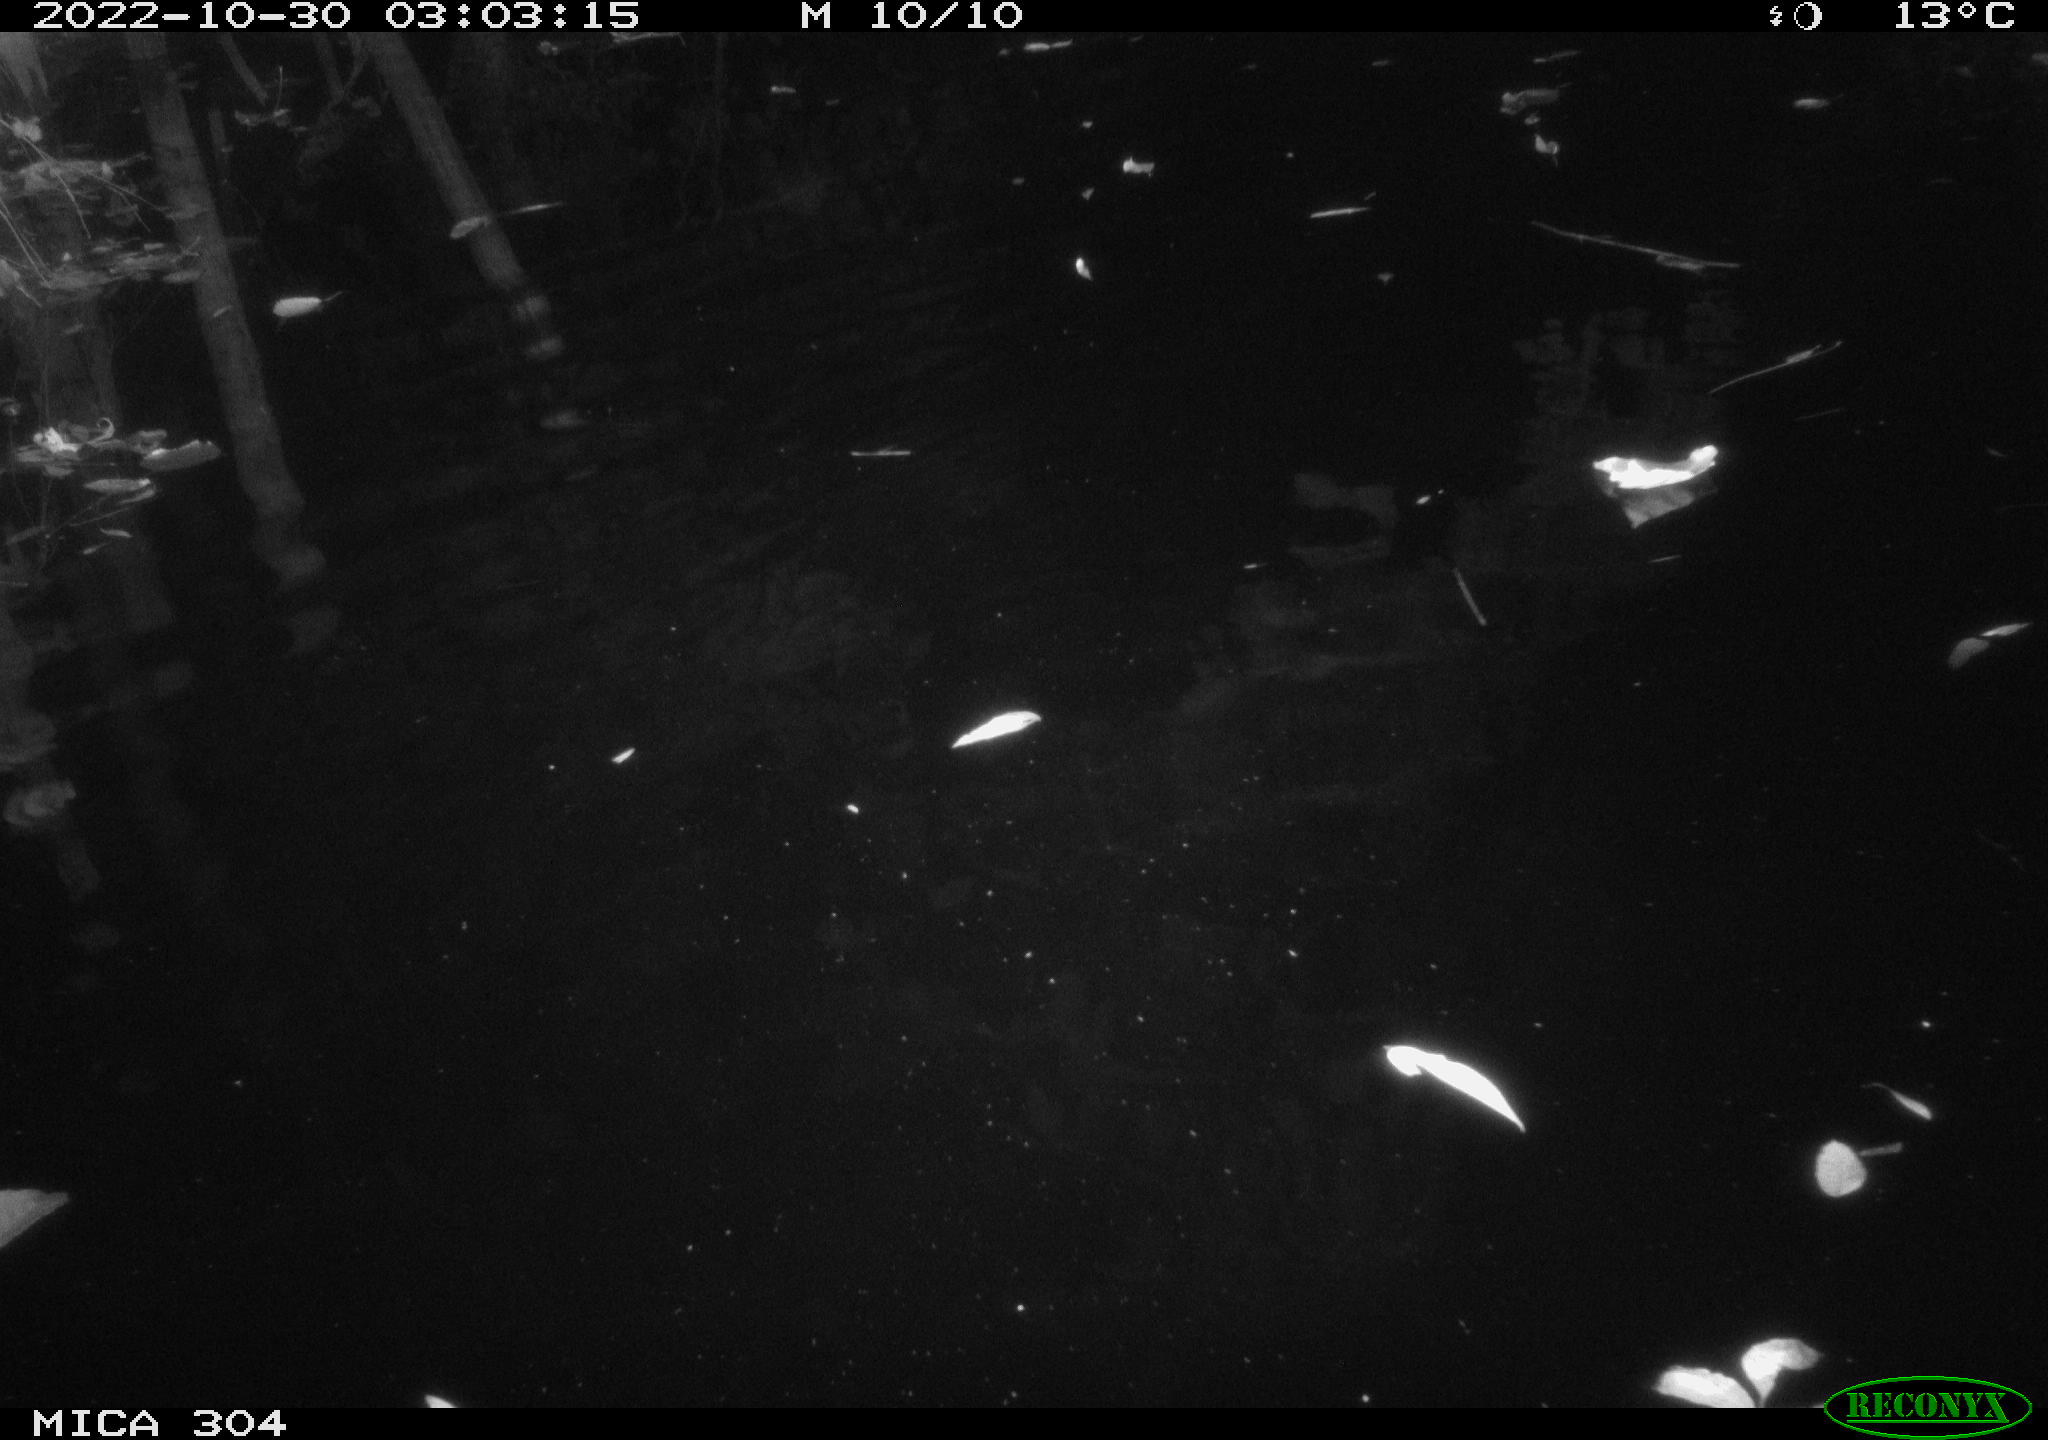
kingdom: Animalia
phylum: Chordata
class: Mammalia
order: Rodentia
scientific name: Rodentia
